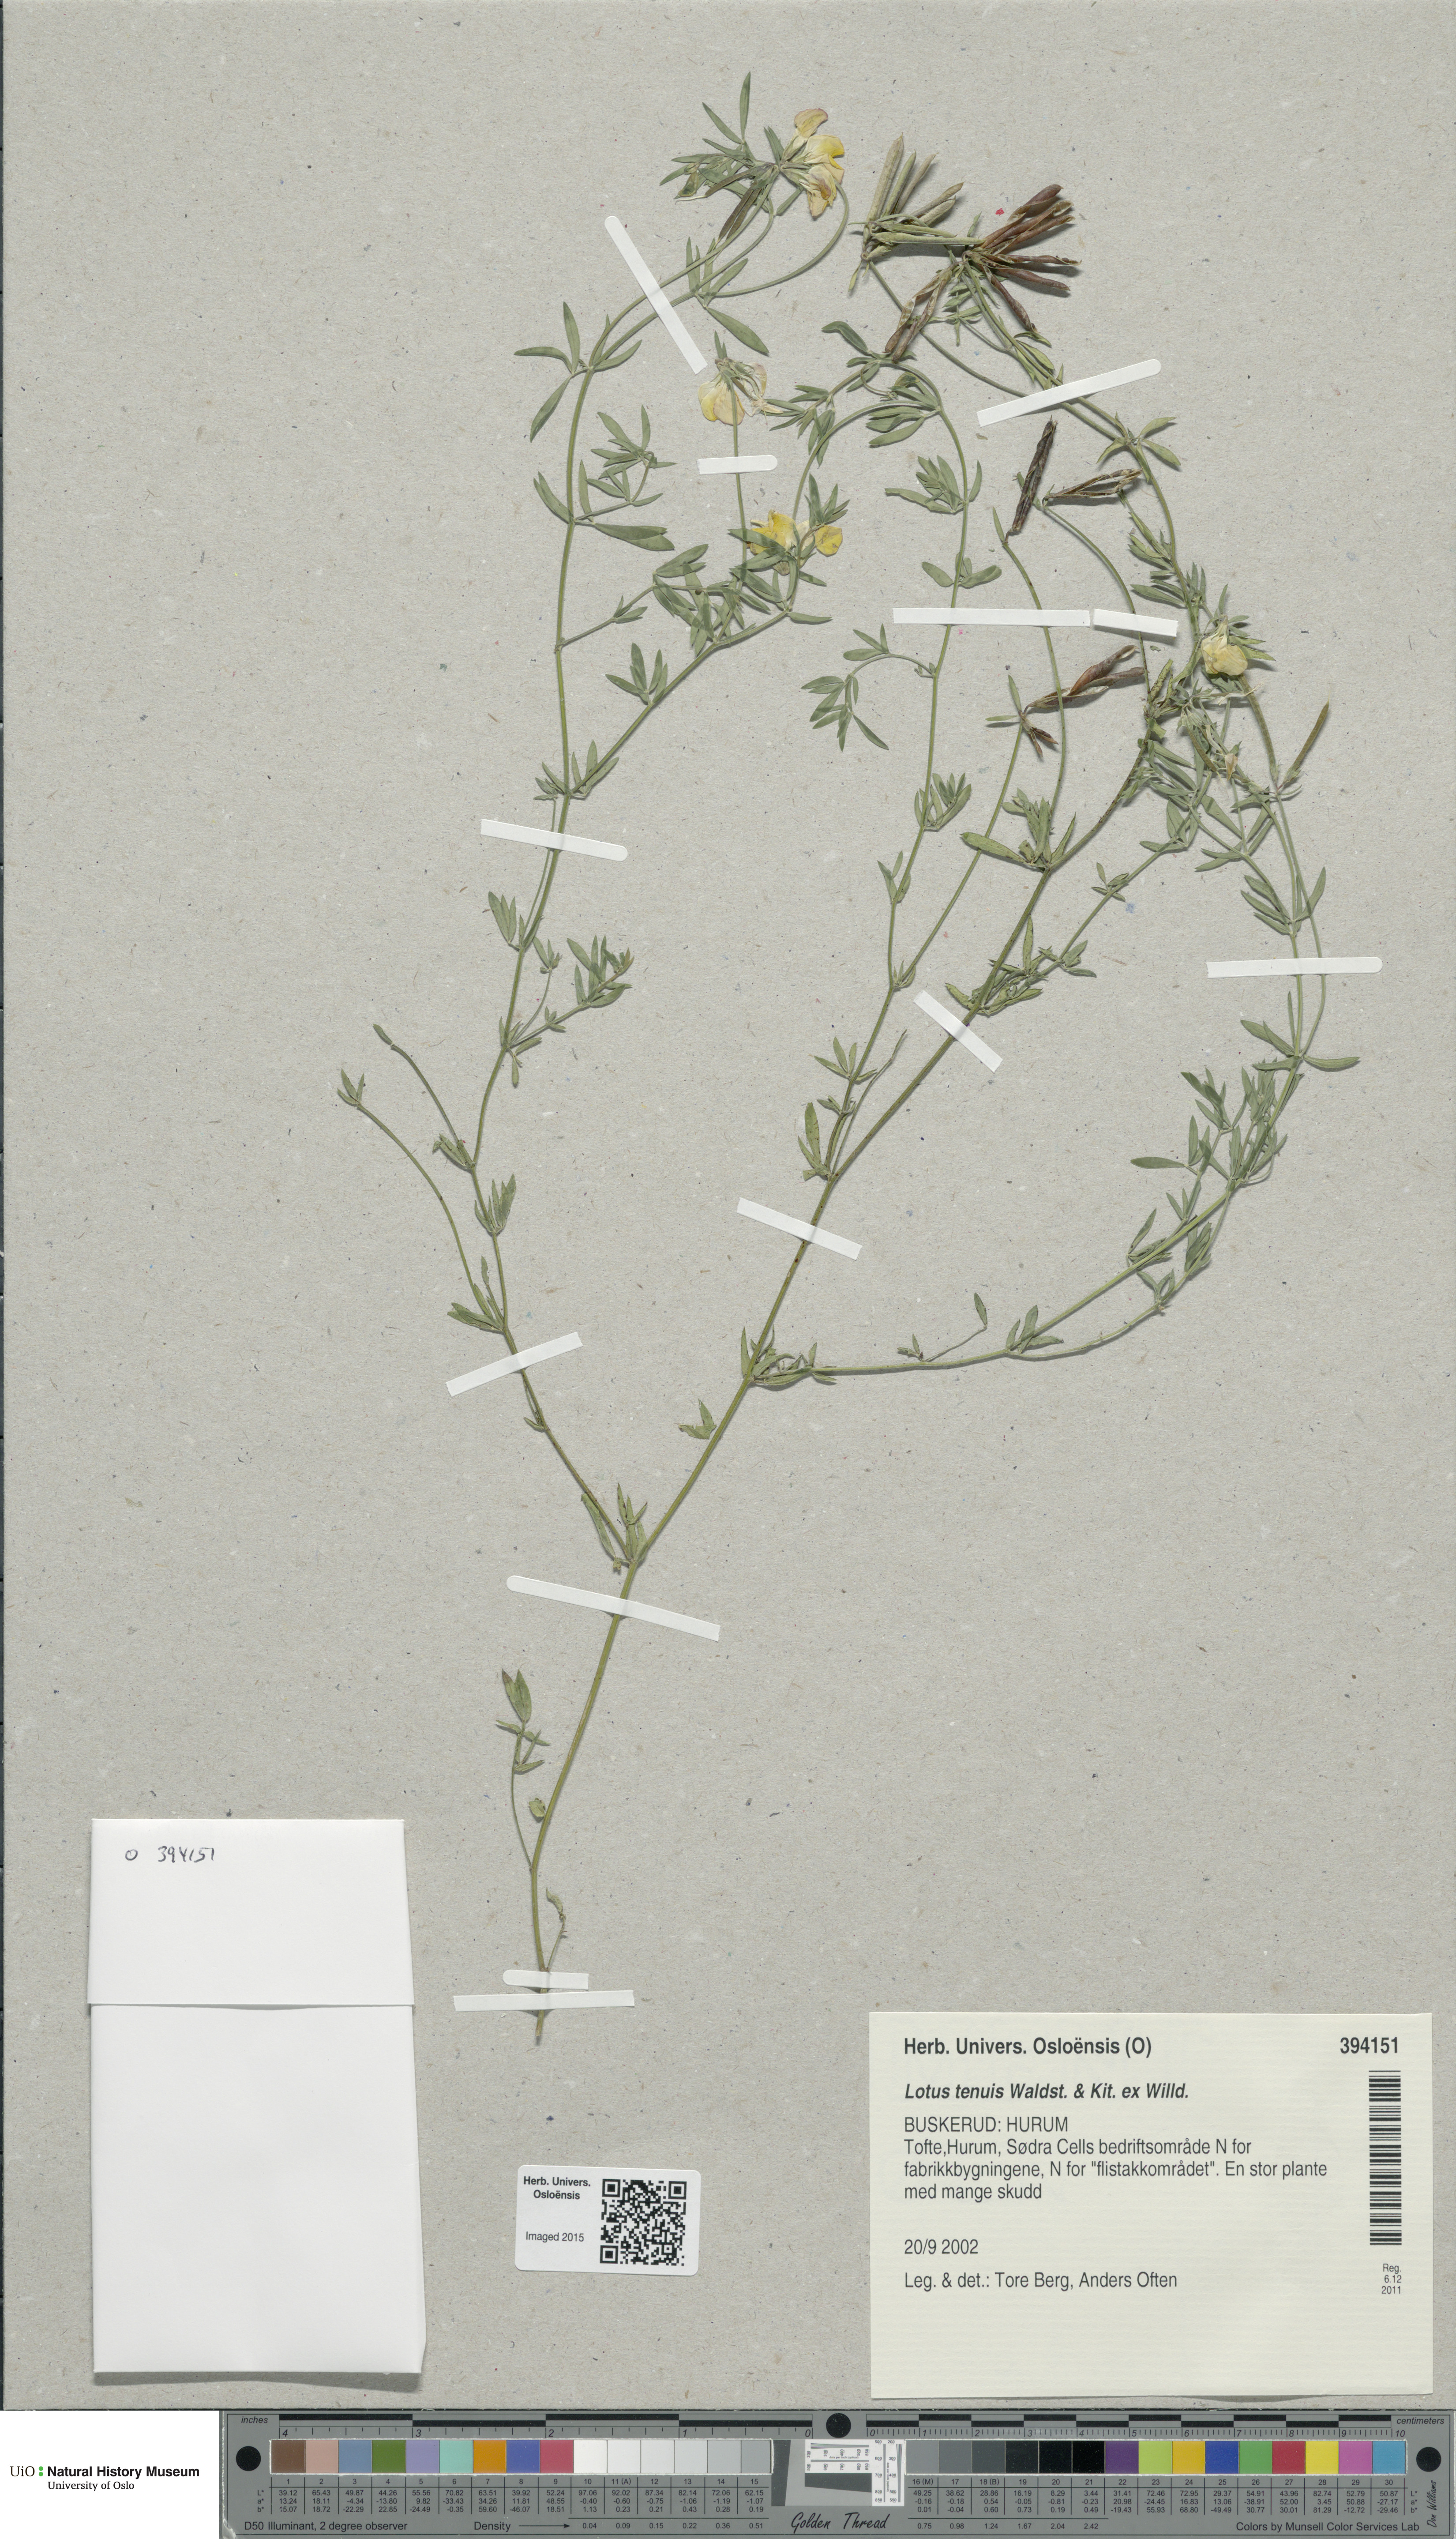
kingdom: Plantae
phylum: Tracheophyta
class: Magnoliopsida
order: Fabales
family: Fabaceae
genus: Lotus
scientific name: Lotus tenuis
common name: Narrow-leaved bird's-foot-trefoil
